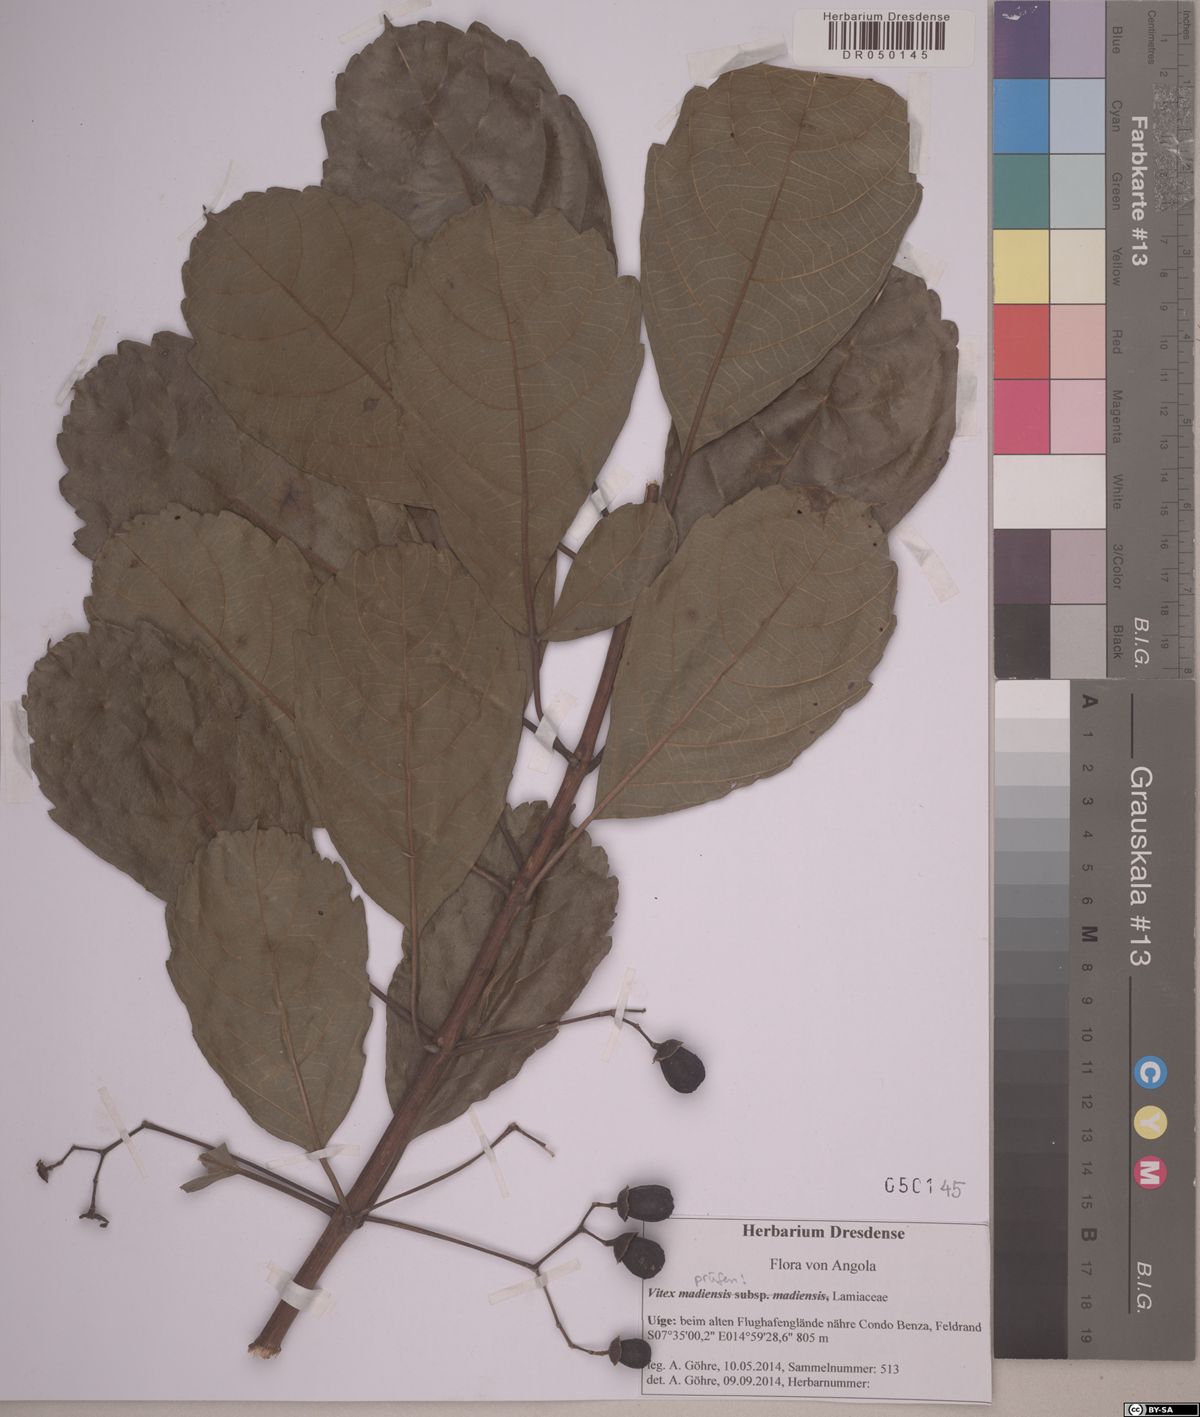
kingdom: Plantae
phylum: Tracheophyta
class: Magnoliopsida
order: Lamiales
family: Lamiaceae
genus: Vitex
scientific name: Vitex madiensis
